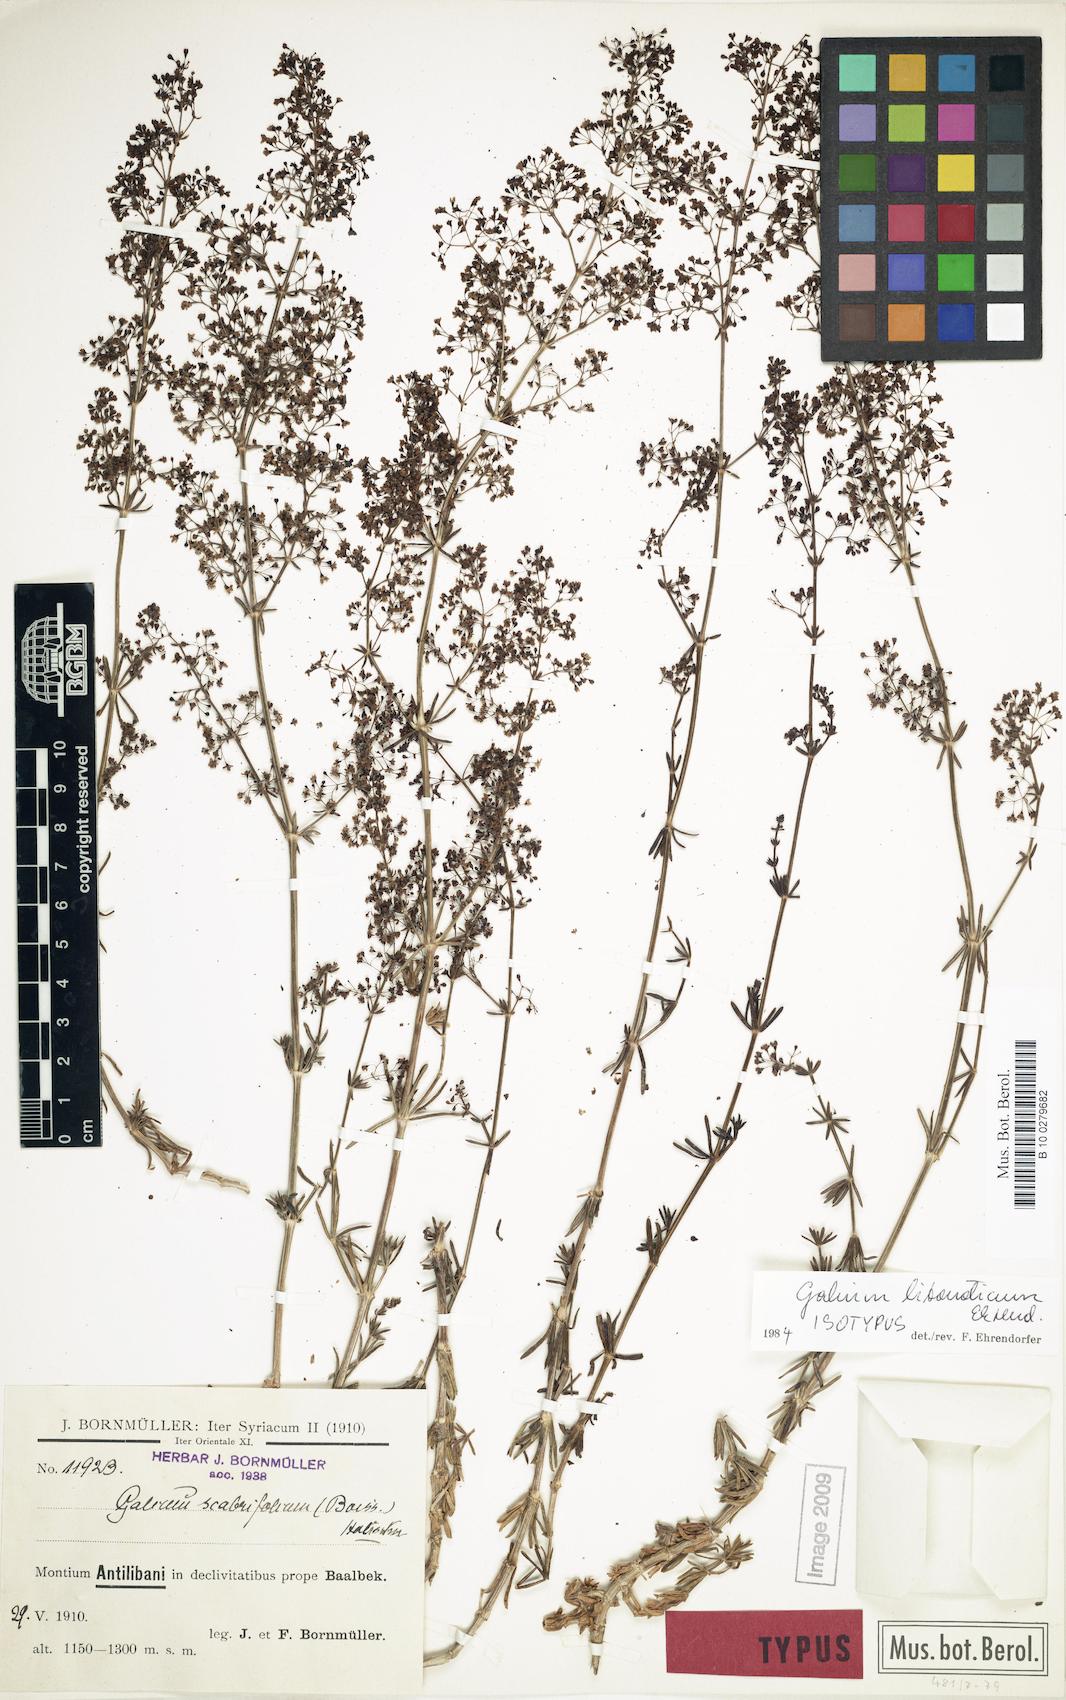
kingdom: Plantae
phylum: Tracheophyta
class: Magnoliopsida
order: Gentianales
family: Rubiaceae
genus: Galium
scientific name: Galium libanoticum
